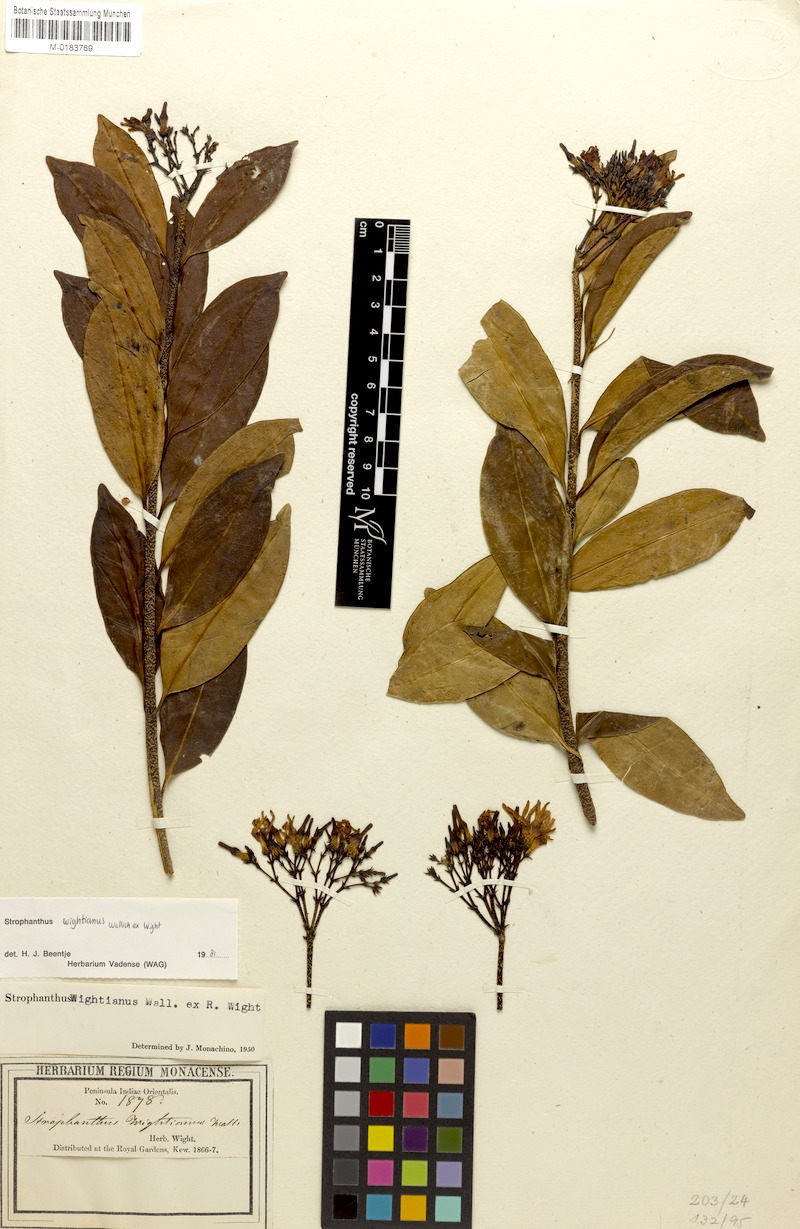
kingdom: Plantae
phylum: Tracheophyta
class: Magnoliopsida
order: Gentianales
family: Apocynaceae
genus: Strophanthus
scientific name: Strophanthus wightianus
